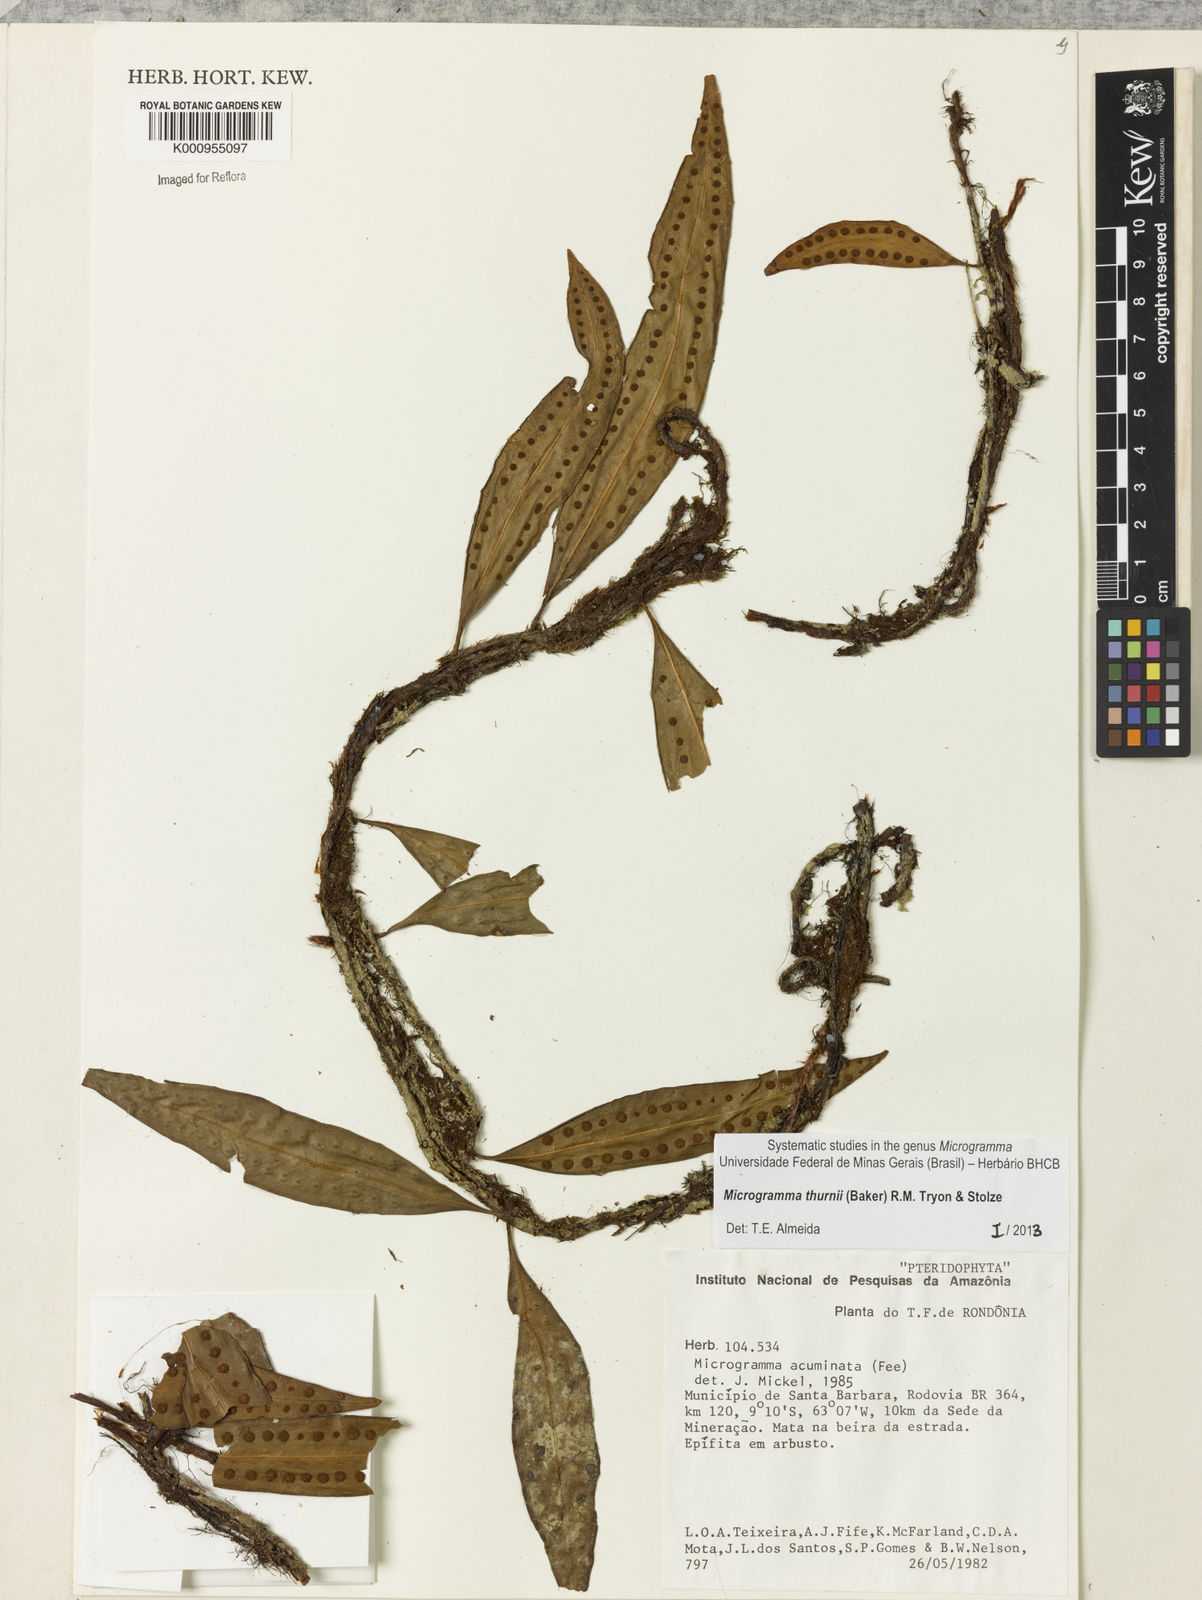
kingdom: Plantae
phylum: Tracheophyta
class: Polypodiopsida
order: Polypodiales
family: Polypodiaceae
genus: Microgramma
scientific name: Microgramma thurnii
